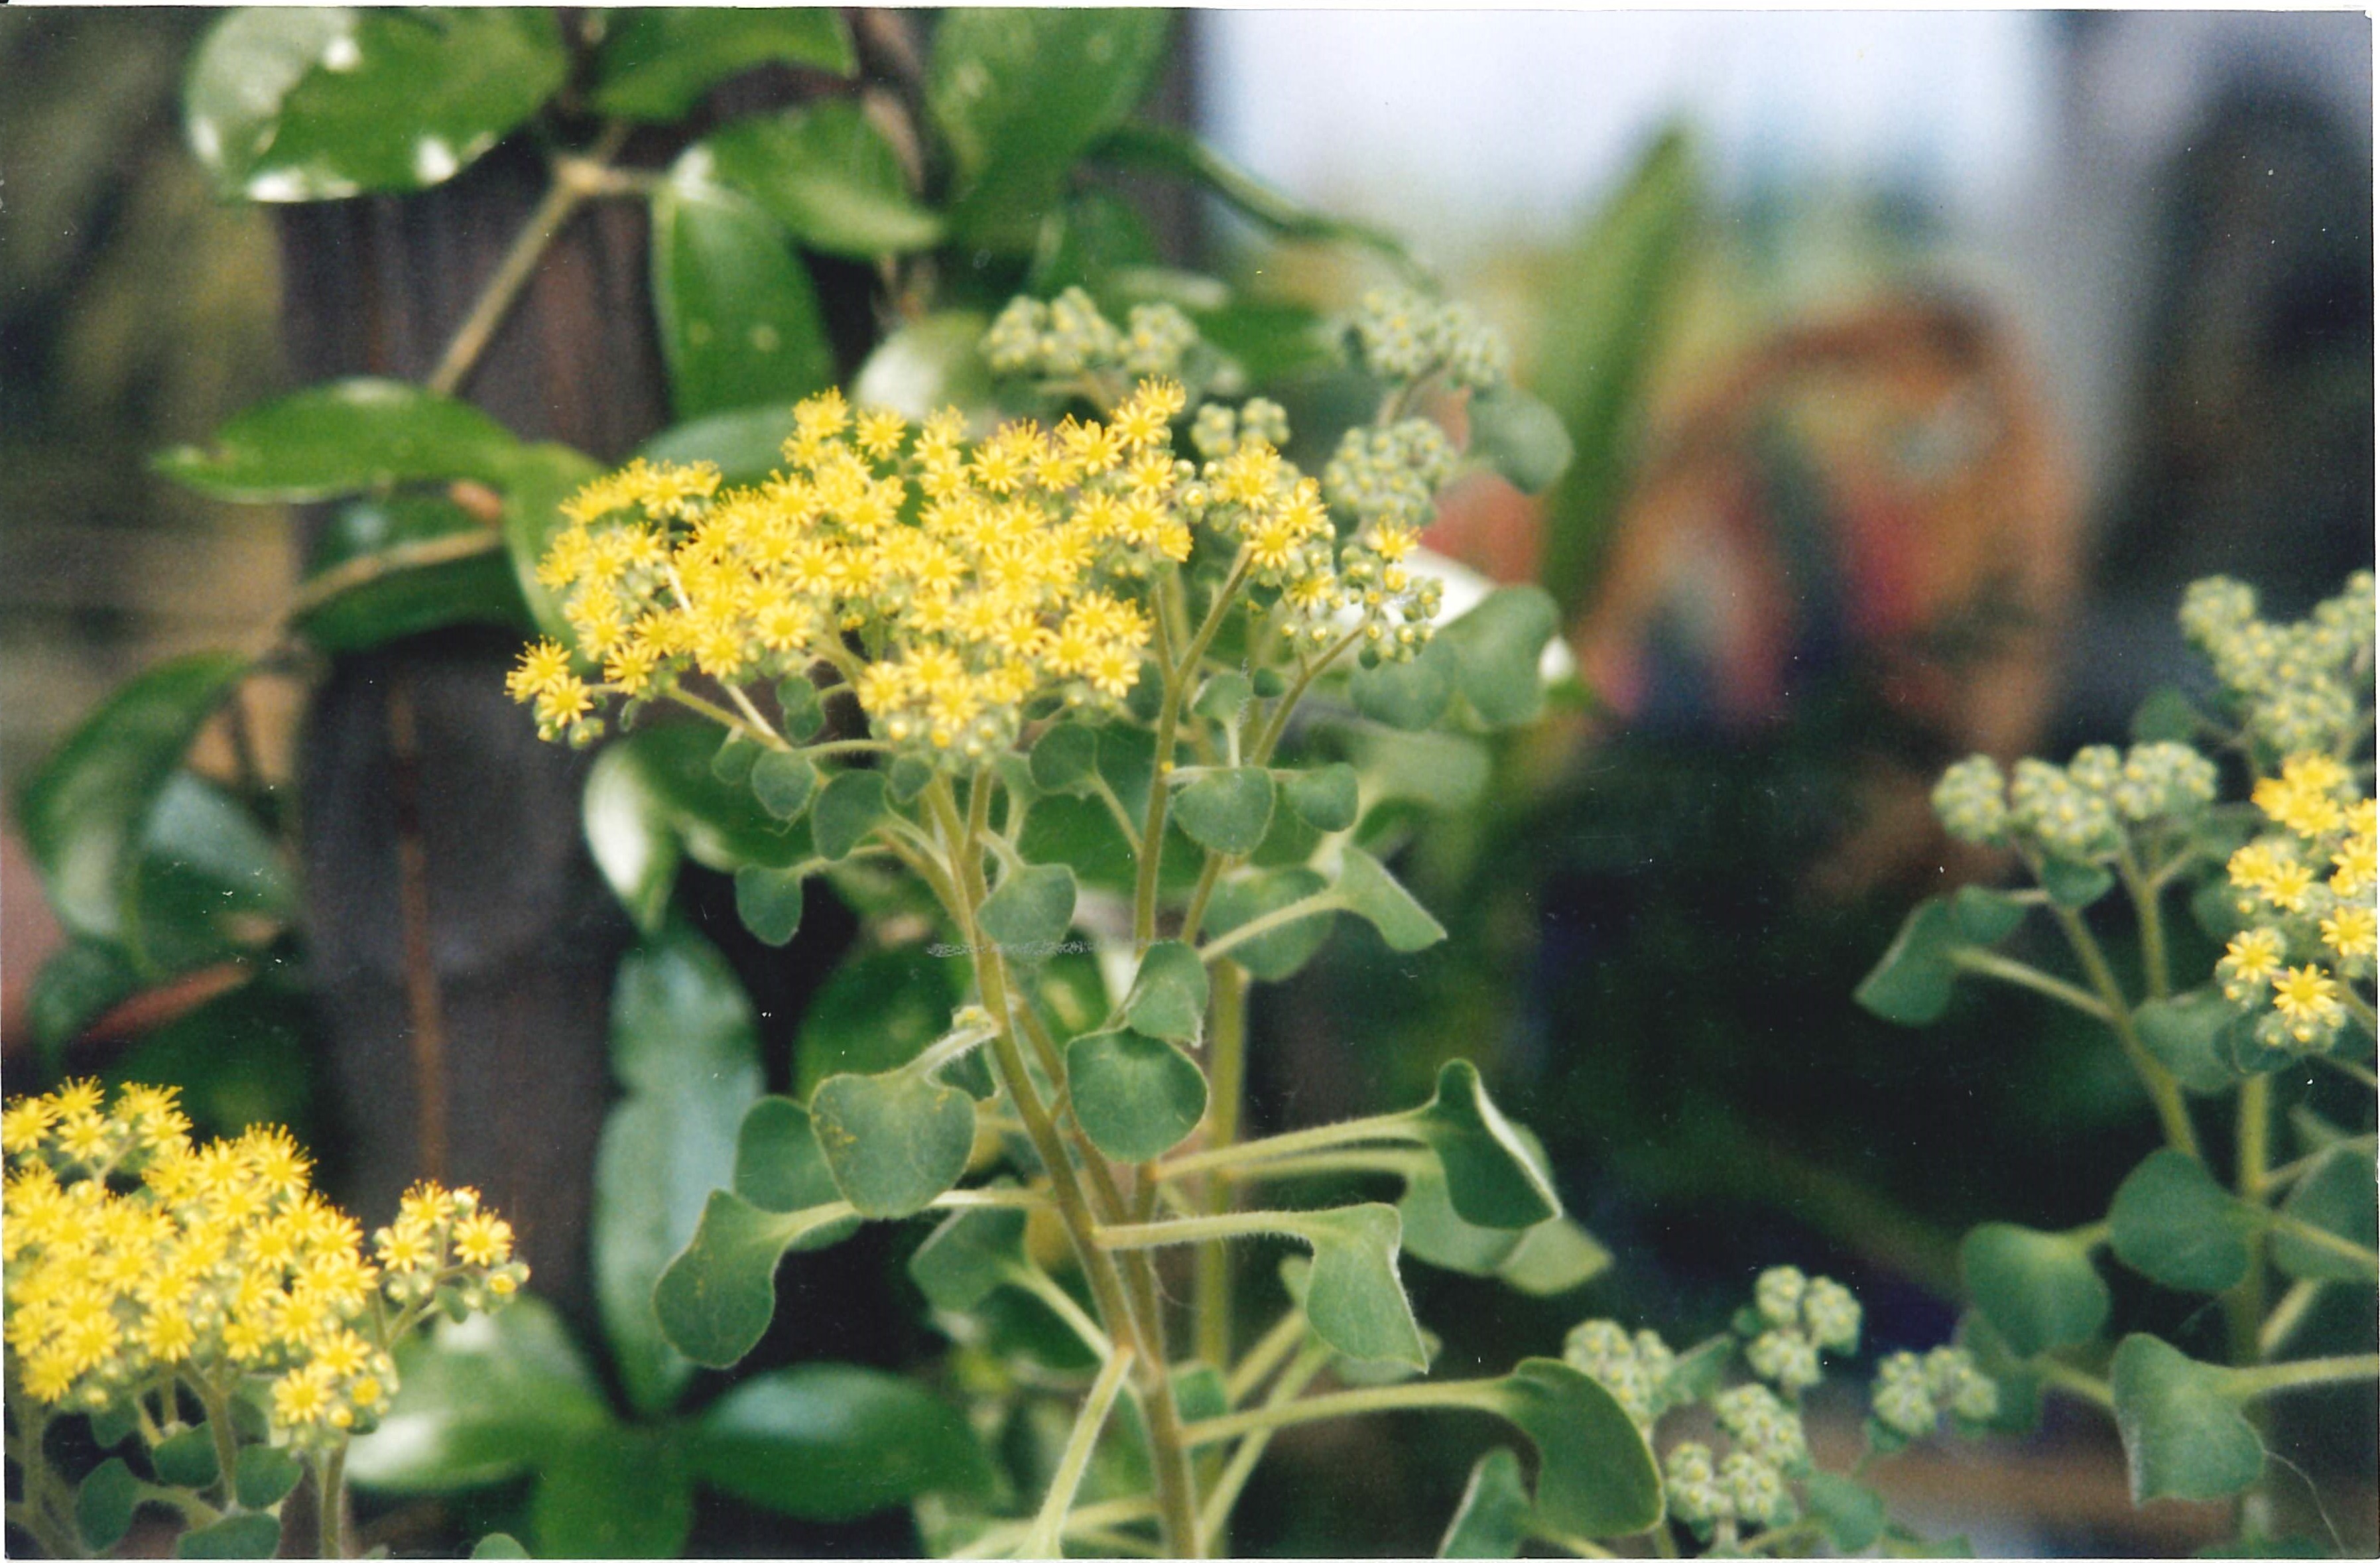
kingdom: Plantae
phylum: Tracheophyta
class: Magnoliopsida
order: Saxifragales
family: Crassulaceae
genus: Aichryson
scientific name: Aichryson laxum
